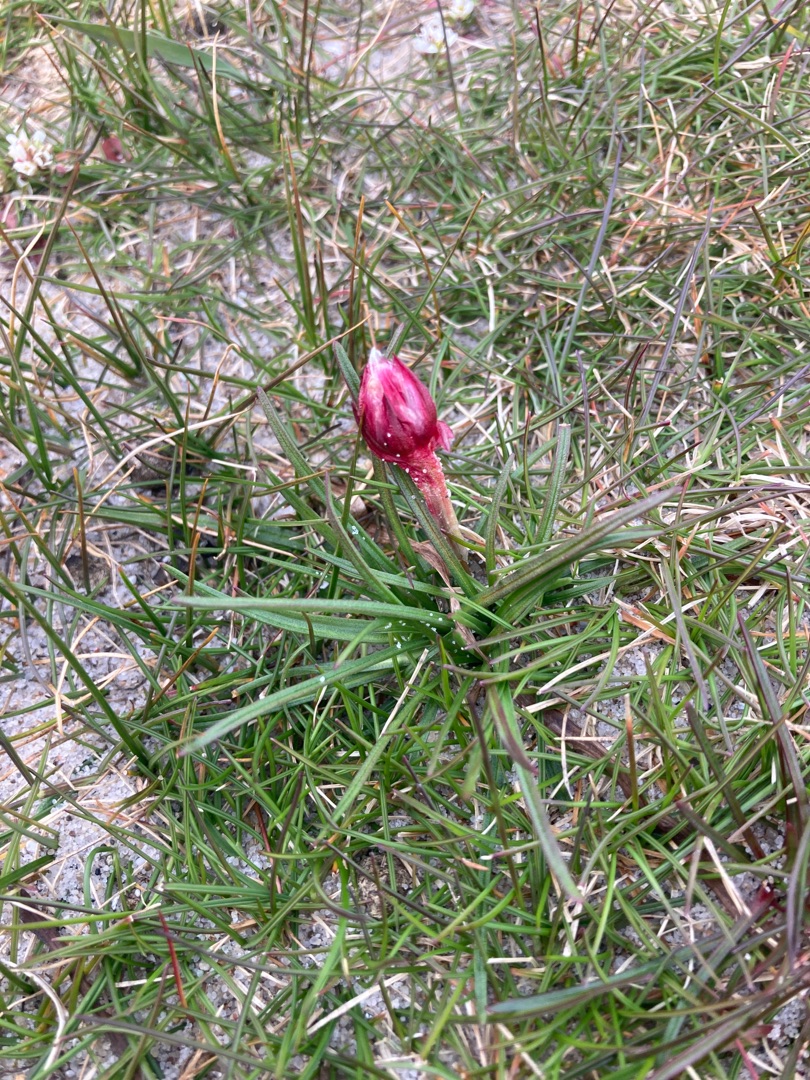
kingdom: Plantae
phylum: Tracheophyta
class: Magnoliopsida
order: Caryophyllales
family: Plumbaginaceae
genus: Armeria
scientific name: Armeria maritima
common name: Engelskgræs
